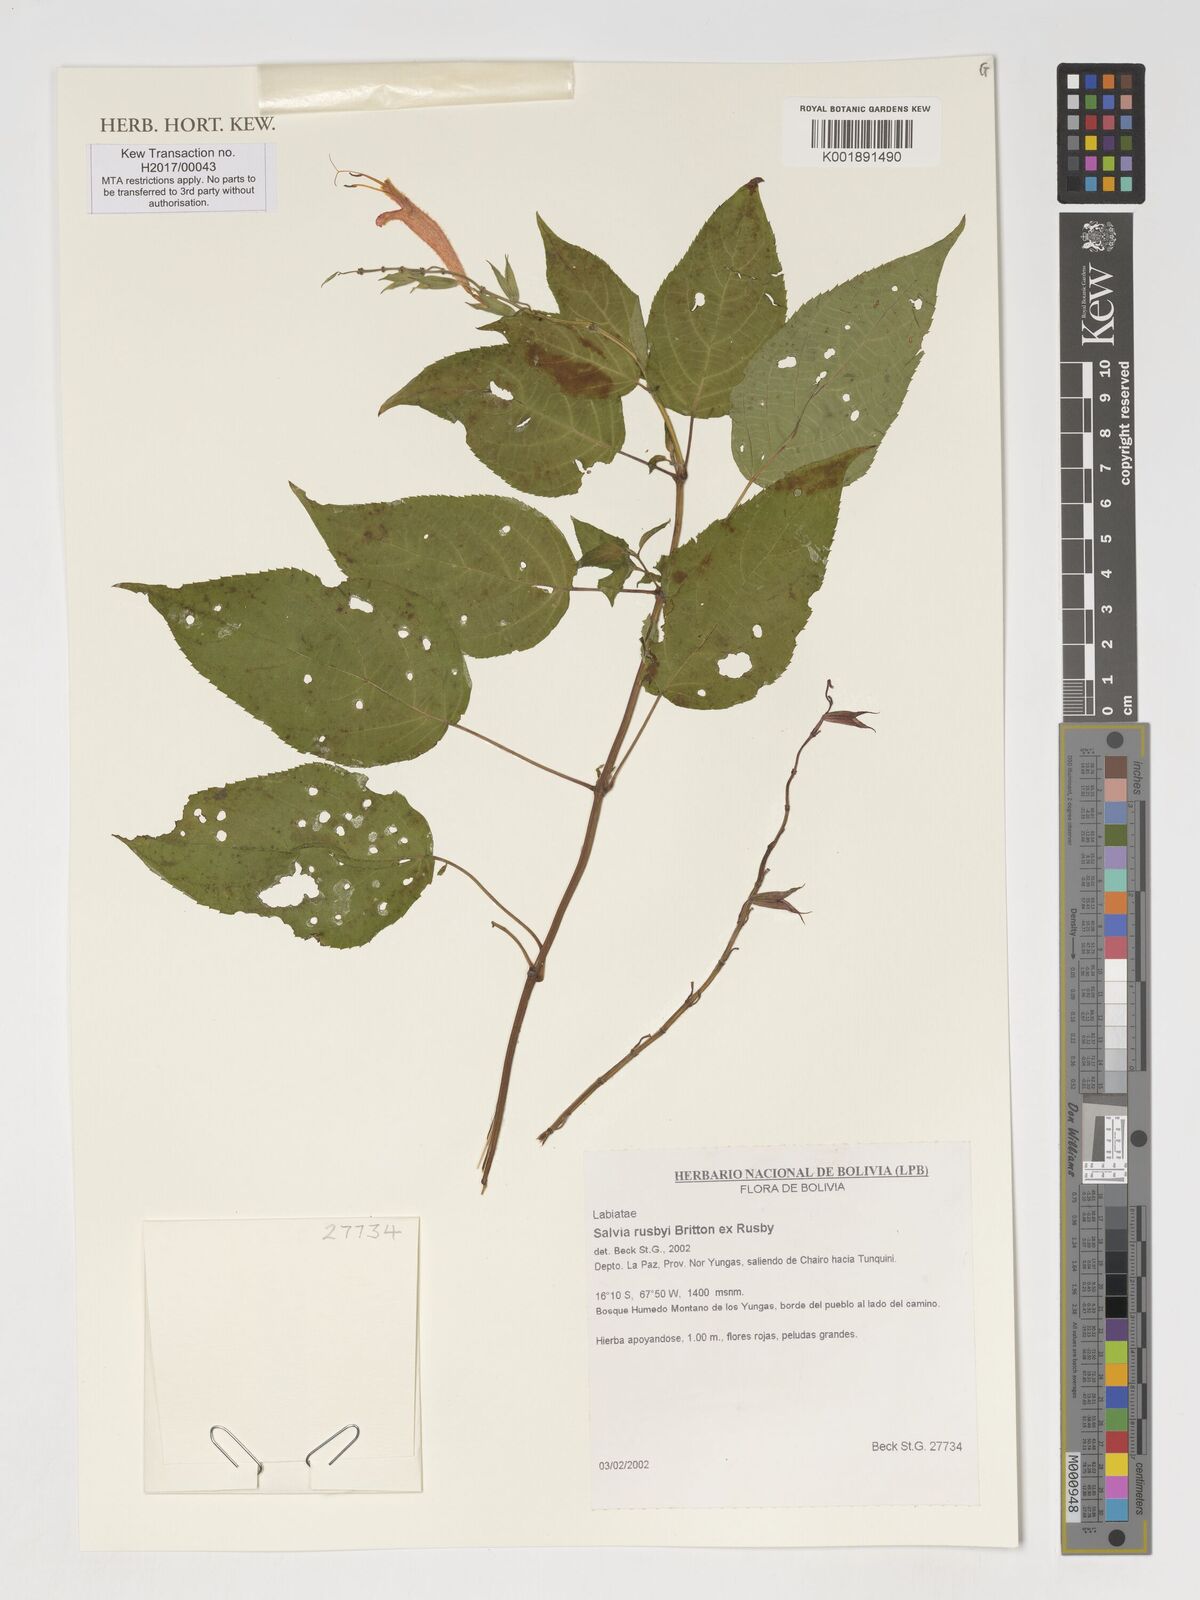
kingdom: Plantae
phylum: Tracheophyta
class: Magnoliopsida
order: Lamiales
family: Lamiaceae
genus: Salvia
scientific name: Salvia rusbyi
